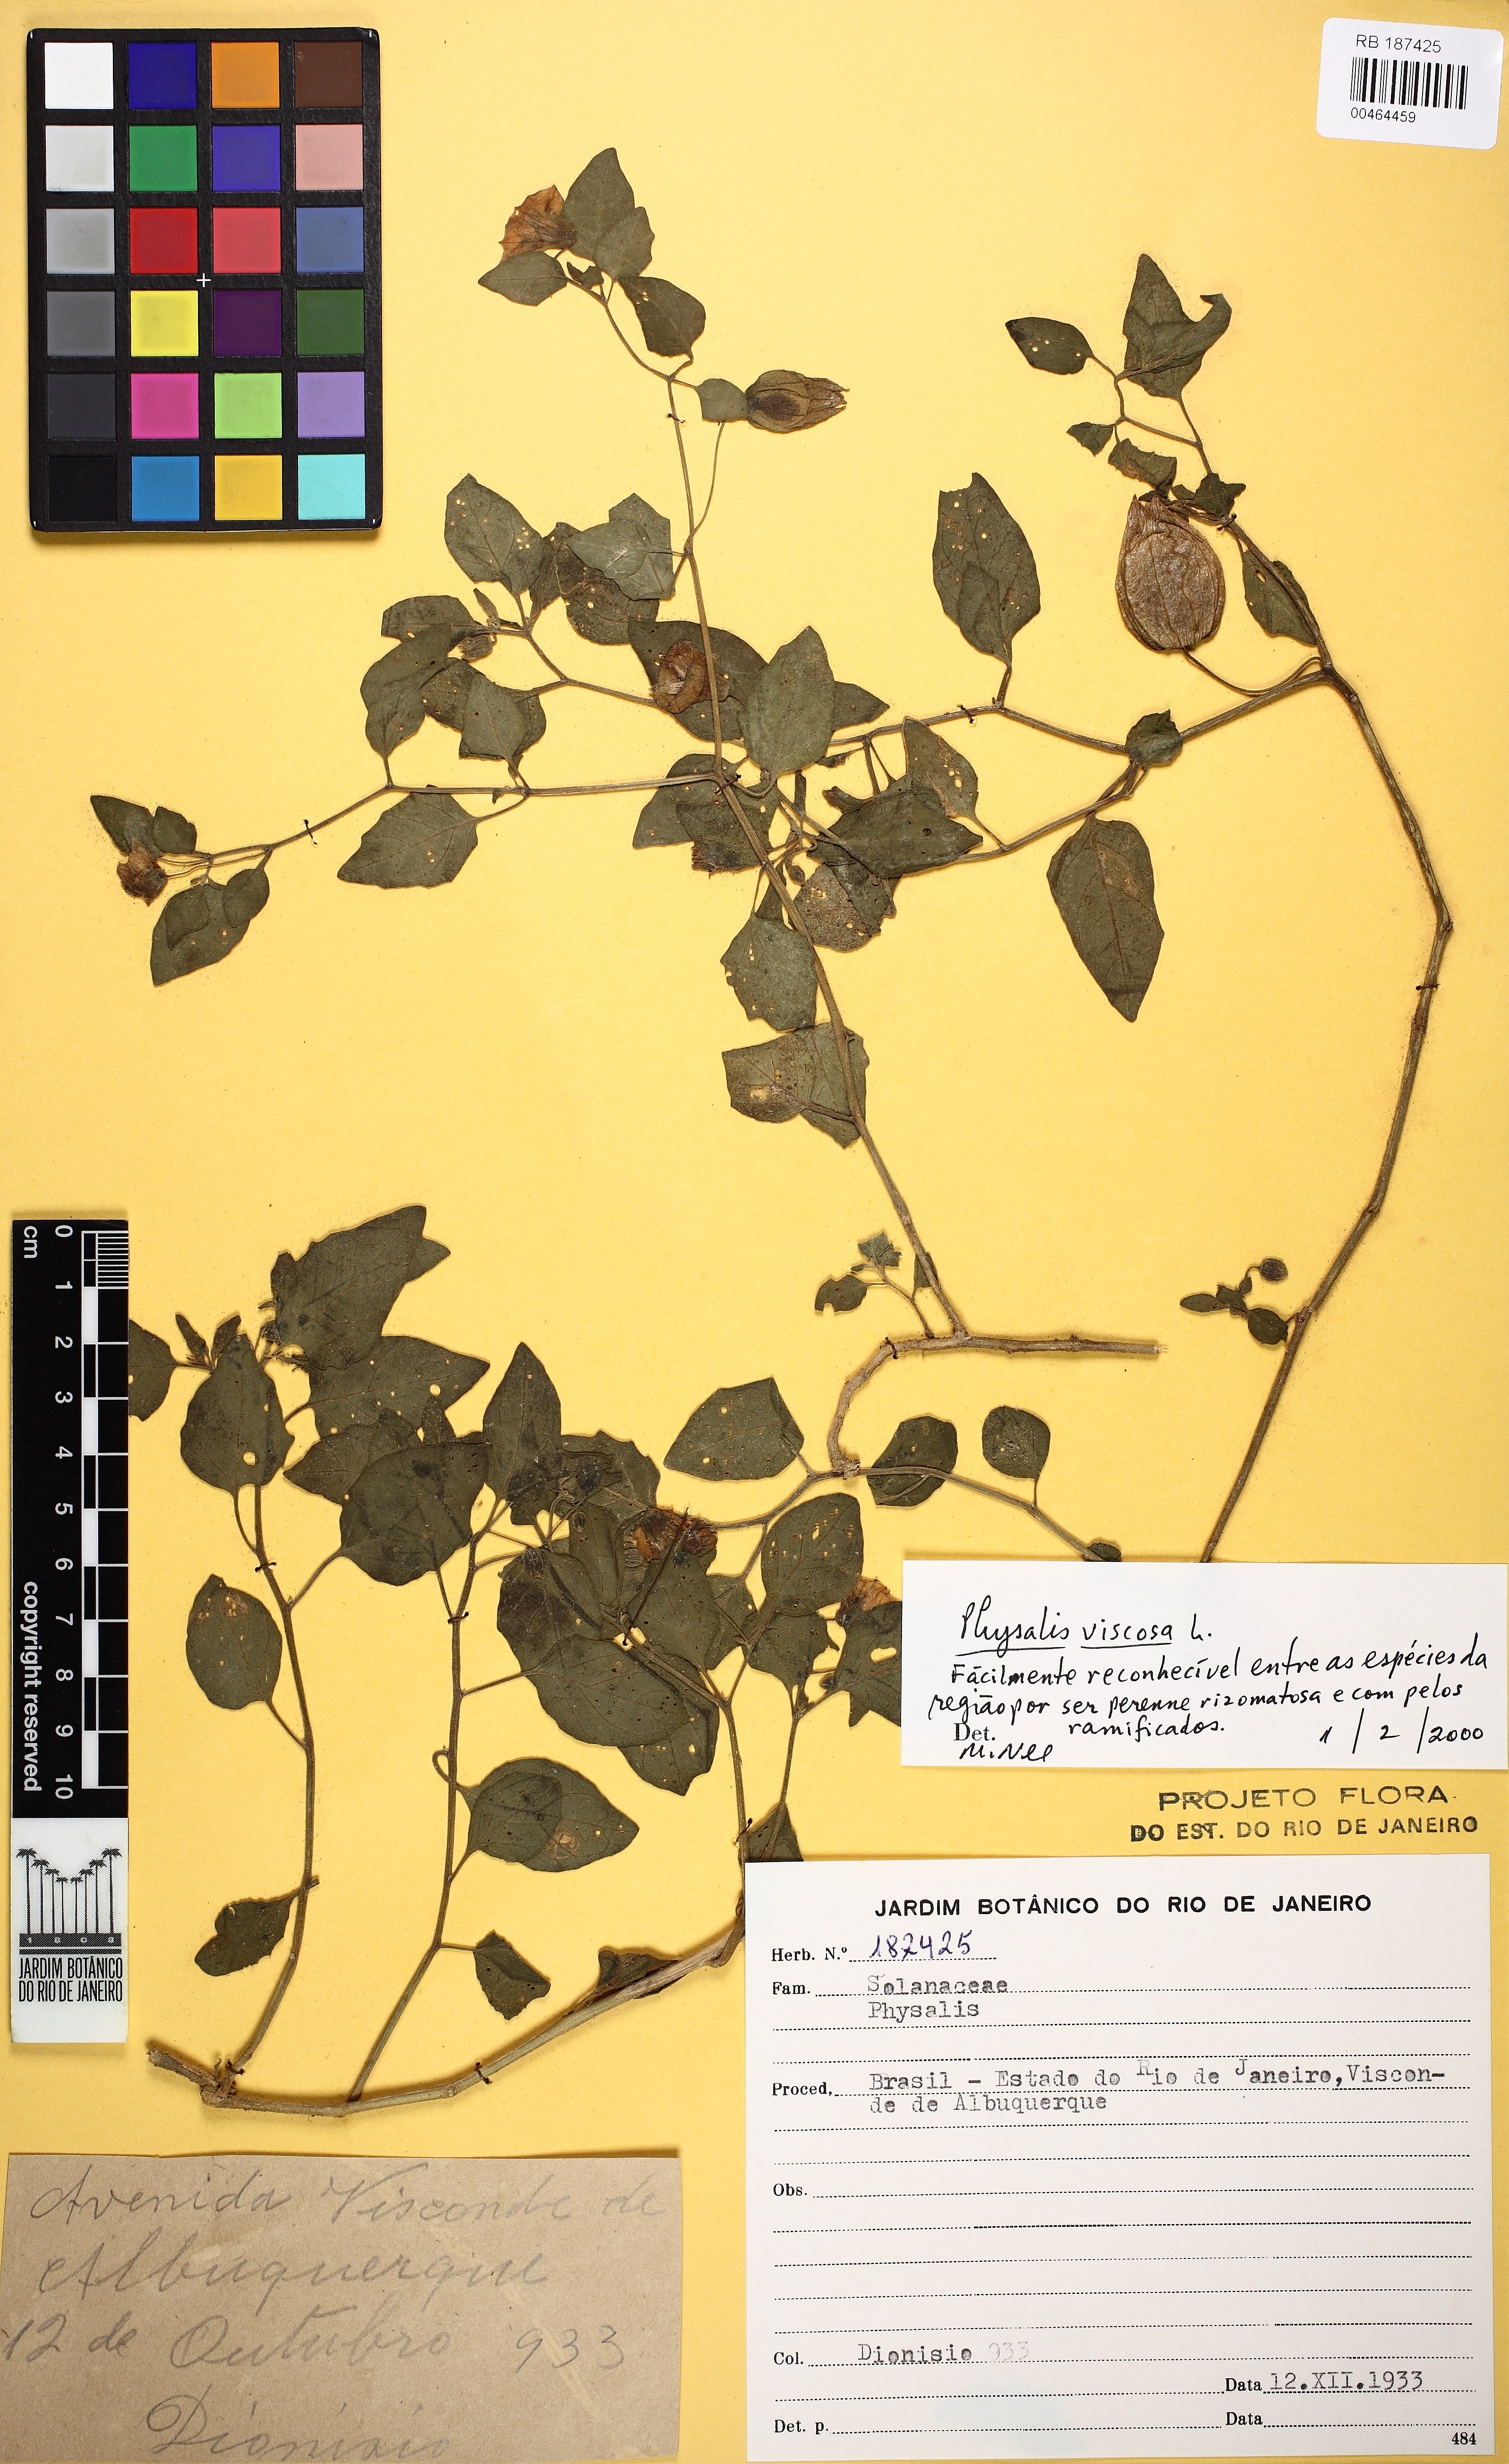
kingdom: Plantae
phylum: Tracheophyta
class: Magnoliopsida
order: Solanales
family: Solanaceae
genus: Physalis
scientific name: Physalis viscosa
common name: Stellate ground-cherry
